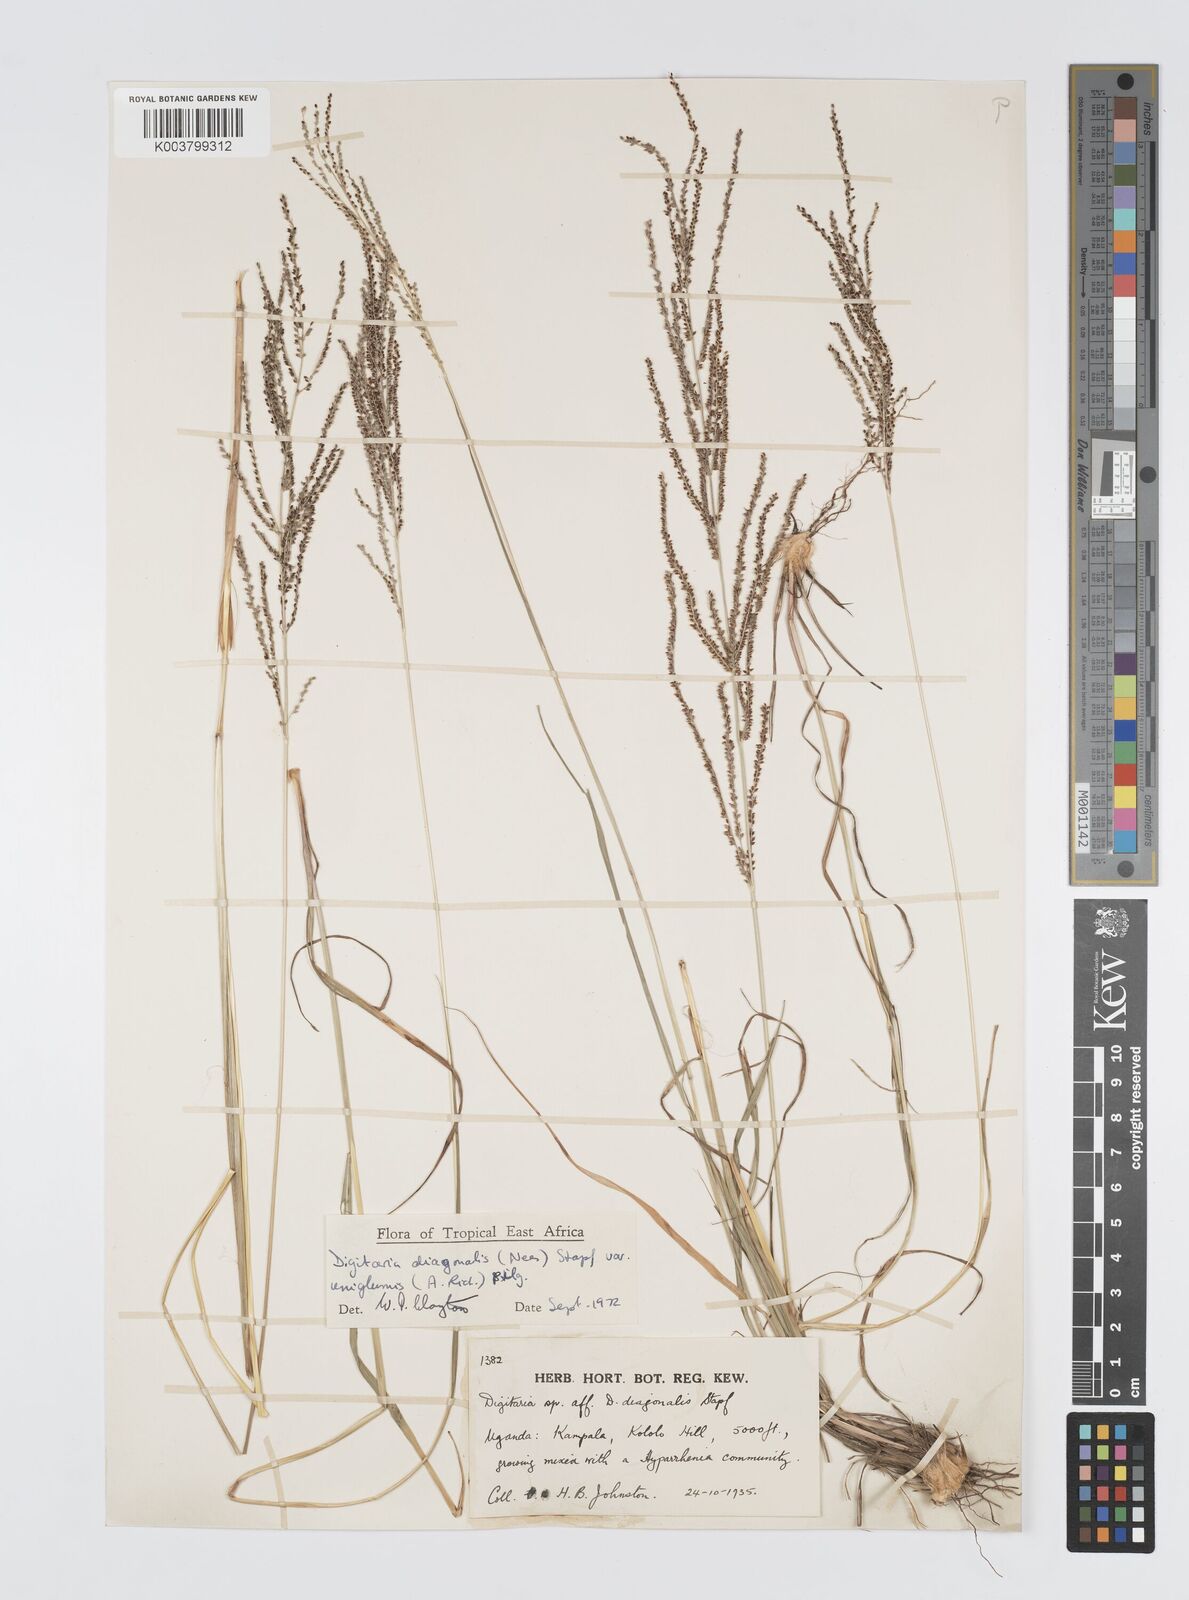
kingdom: Plantae
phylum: Tracheophyta
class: Liliopsida
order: Poales
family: Poaceae
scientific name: Poaceae
